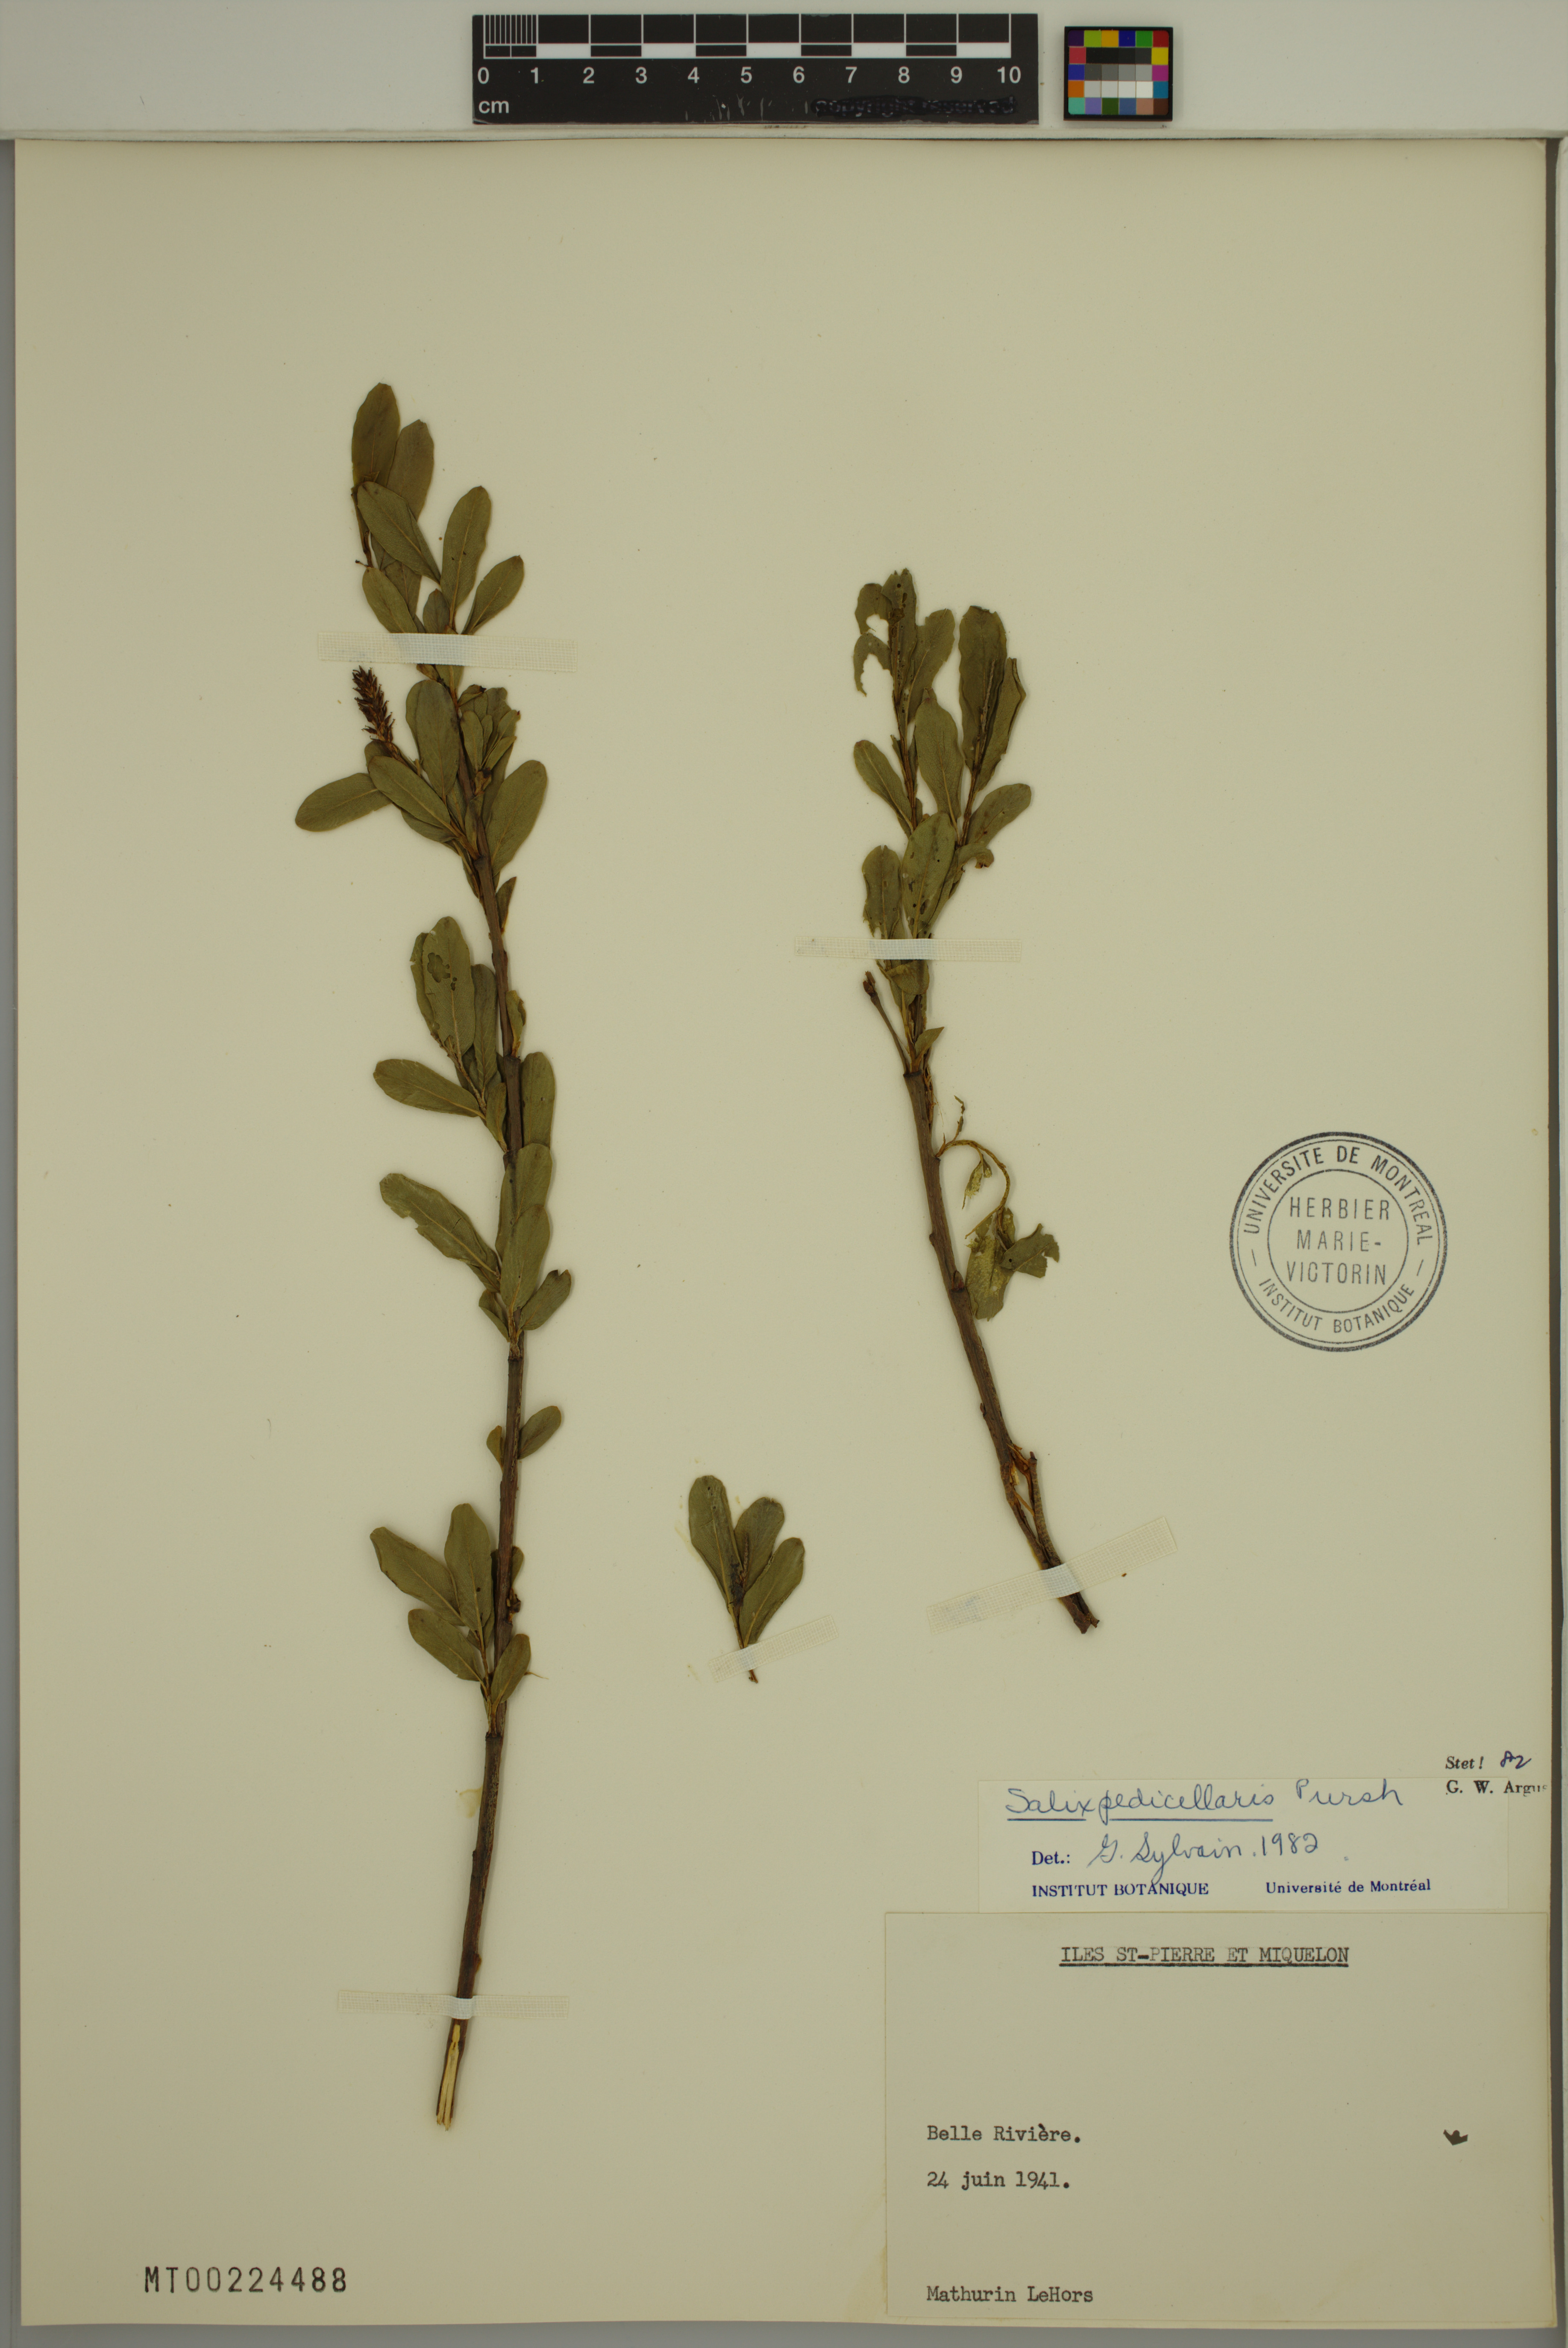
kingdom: Plantae
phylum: Tracheophyta
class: Magnoliopsida
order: Malpighiales
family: Salicaceae
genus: Salix
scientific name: Salix pedicellaris
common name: Bog willow
